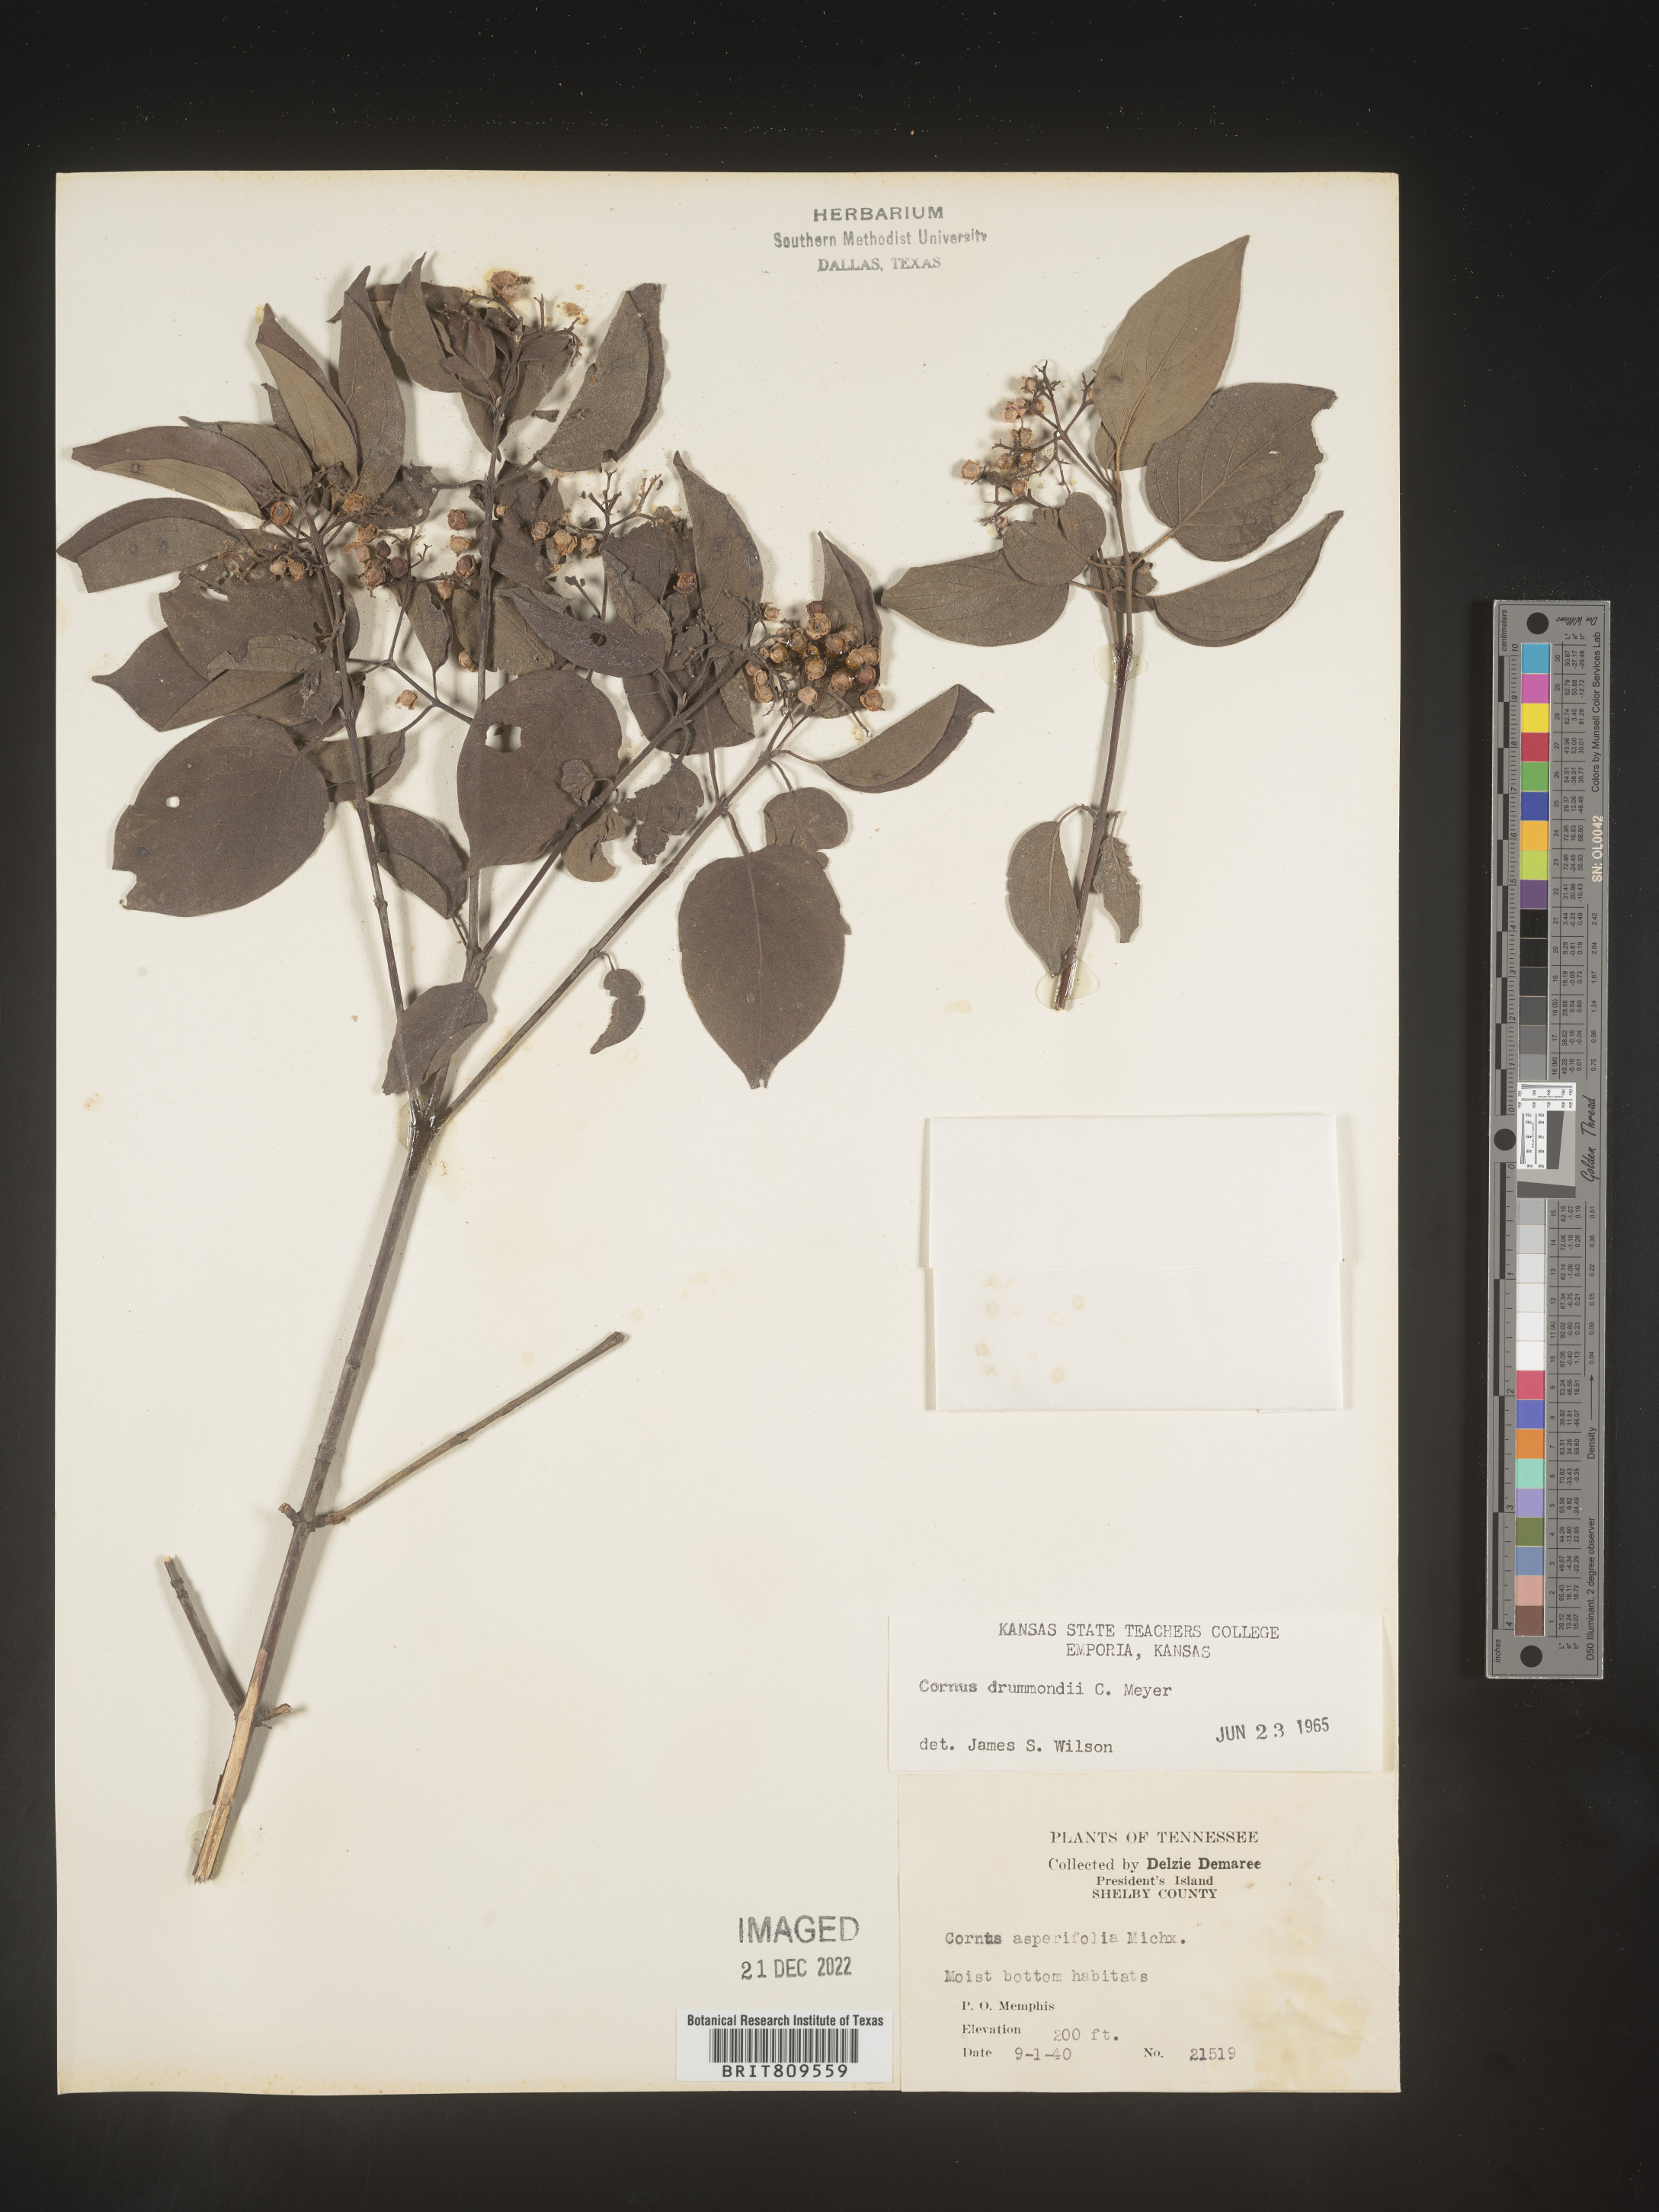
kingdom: Plantae
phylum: Tracheophyta
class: Magnoliopsida
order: Cornales
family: Cornaceae
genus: Cornus
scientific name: Cornus drummondii
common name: Rough-leaf dogwood
